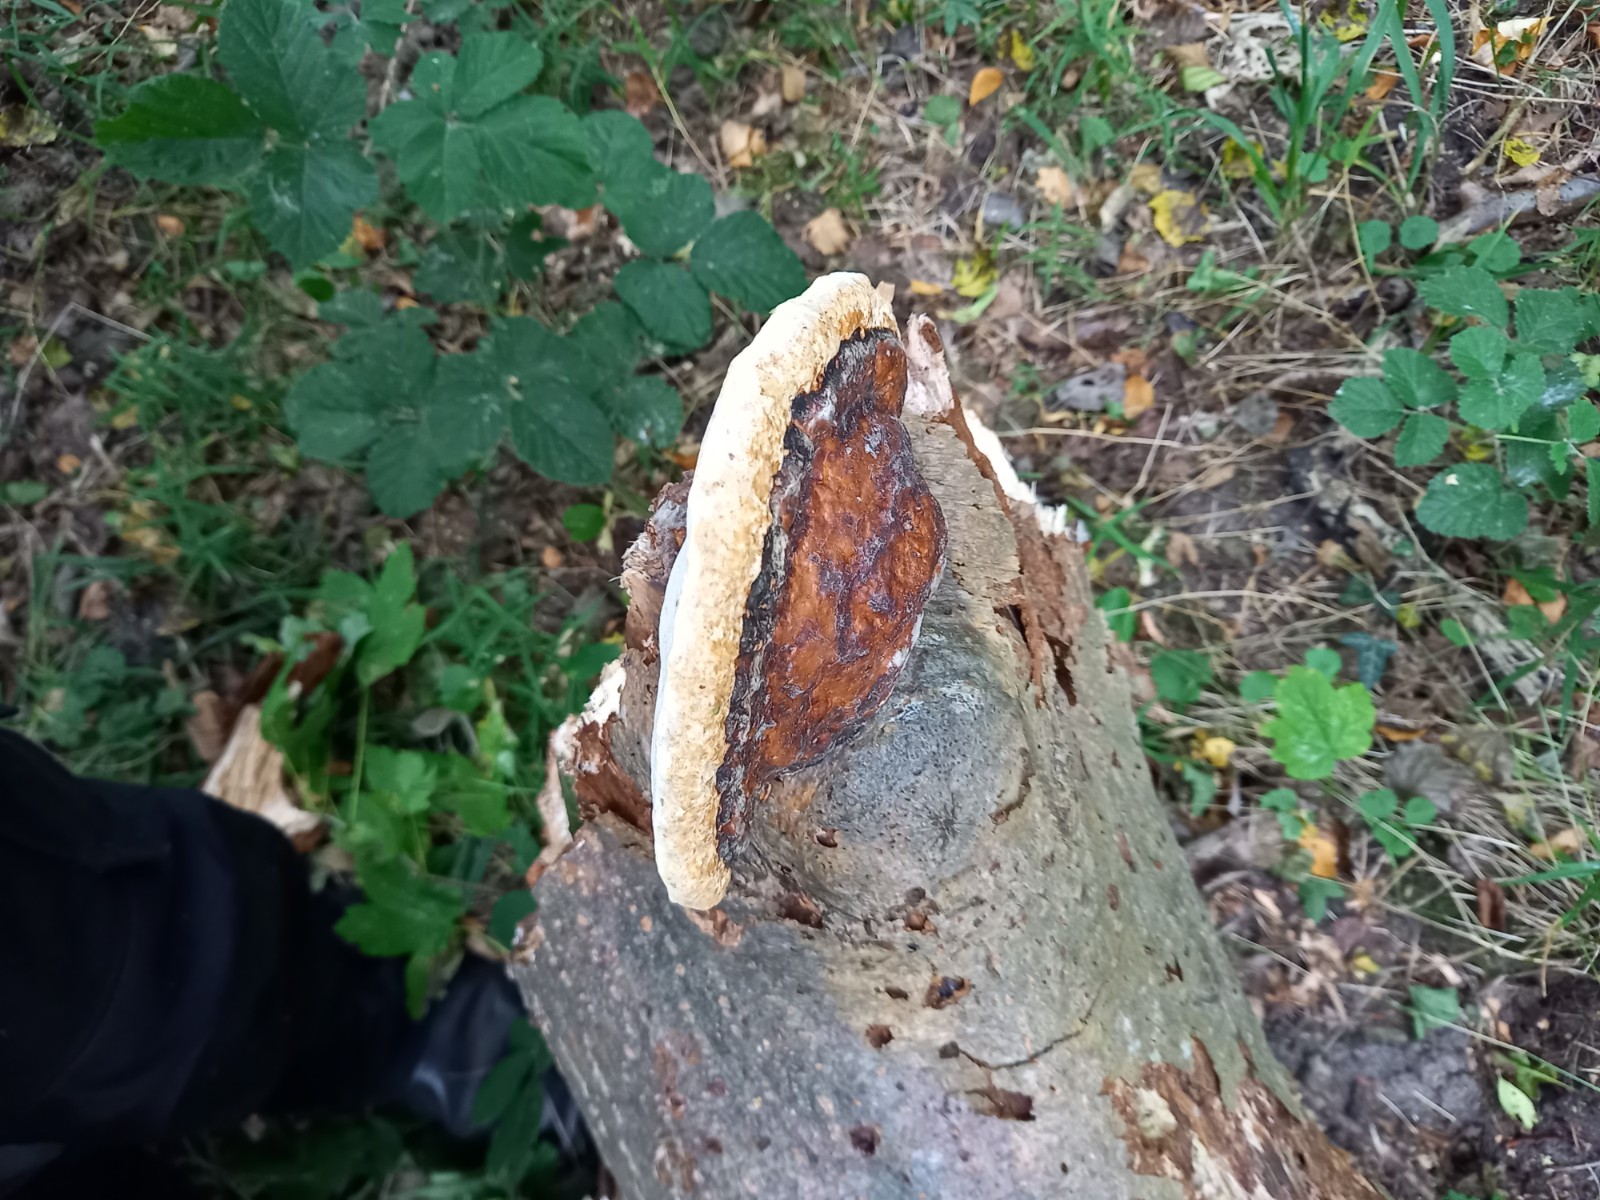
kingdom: Fungi
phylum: Basidiomycota
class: Agaricomycetes
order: Polyporales
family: Fomitopsidaceae
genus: Fomitopsis
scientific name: Fomitopsis pinicola
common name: randbæltet hovporesvamp
